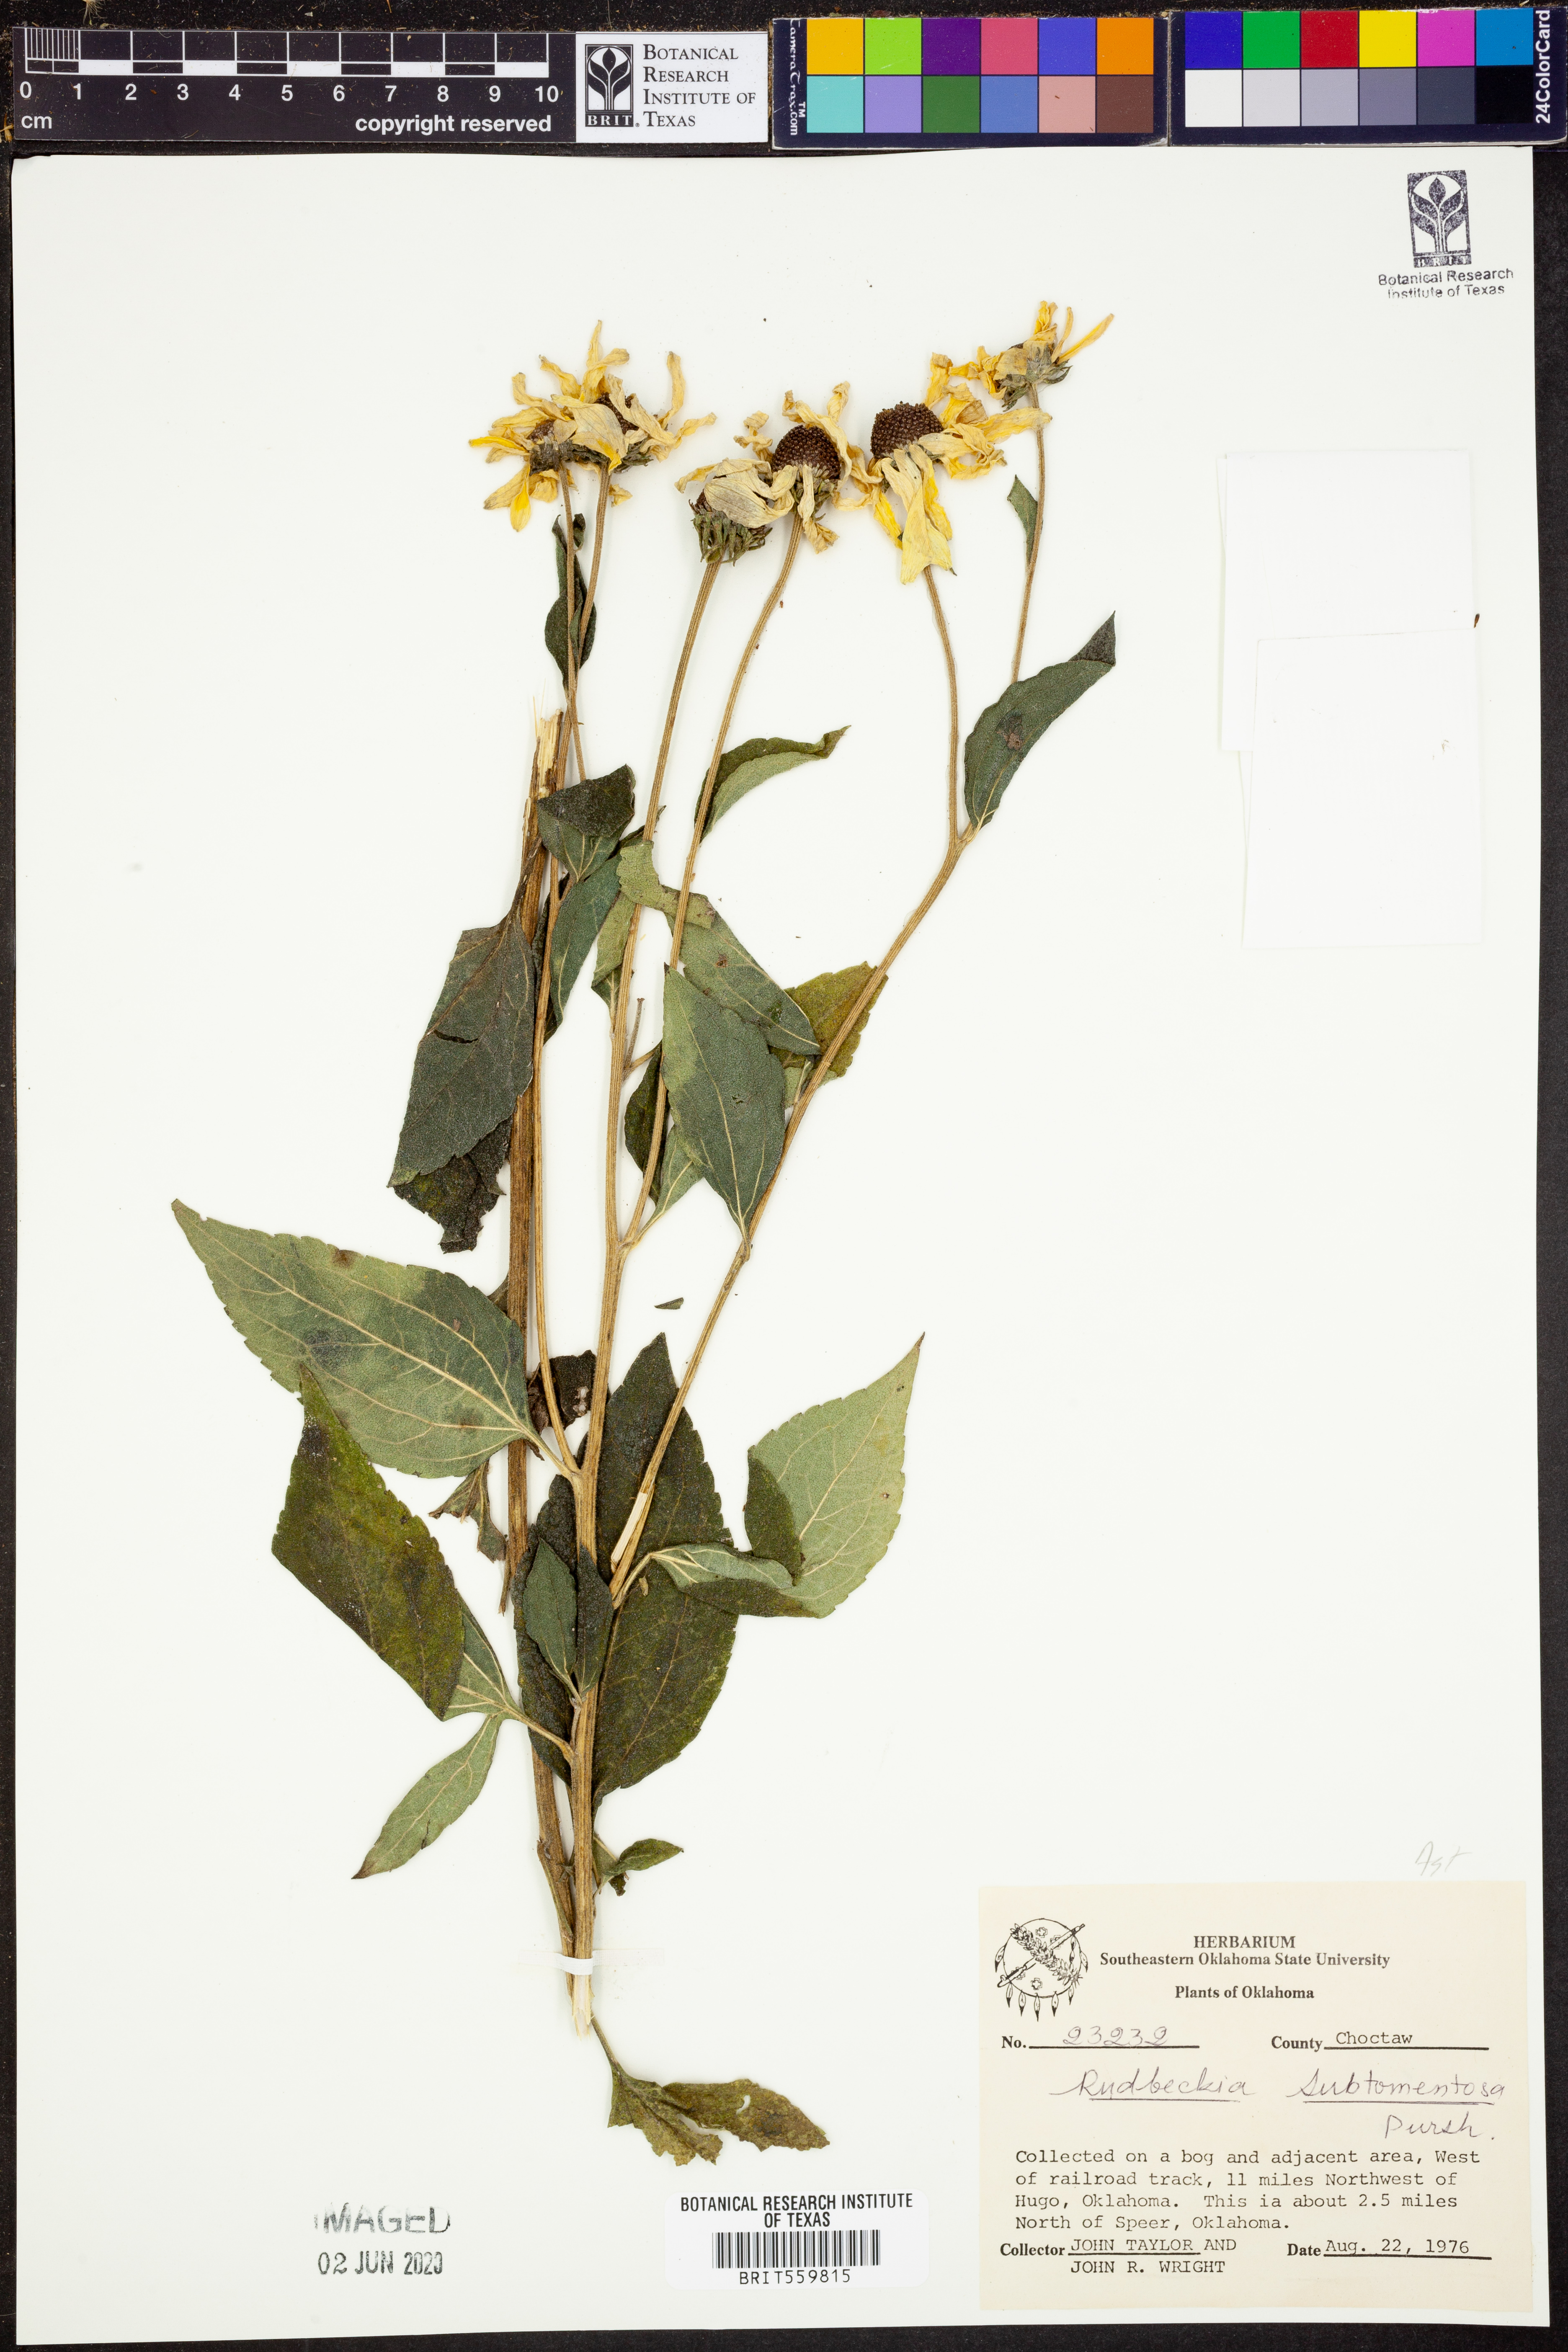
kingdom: Plantae
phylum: Tracheophyta
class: Magnoliopsida
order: Asterales
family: Asteraceae
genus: Rudbeckia
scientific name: Rudbeckia subtomentosa
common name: Sweet coneflower
